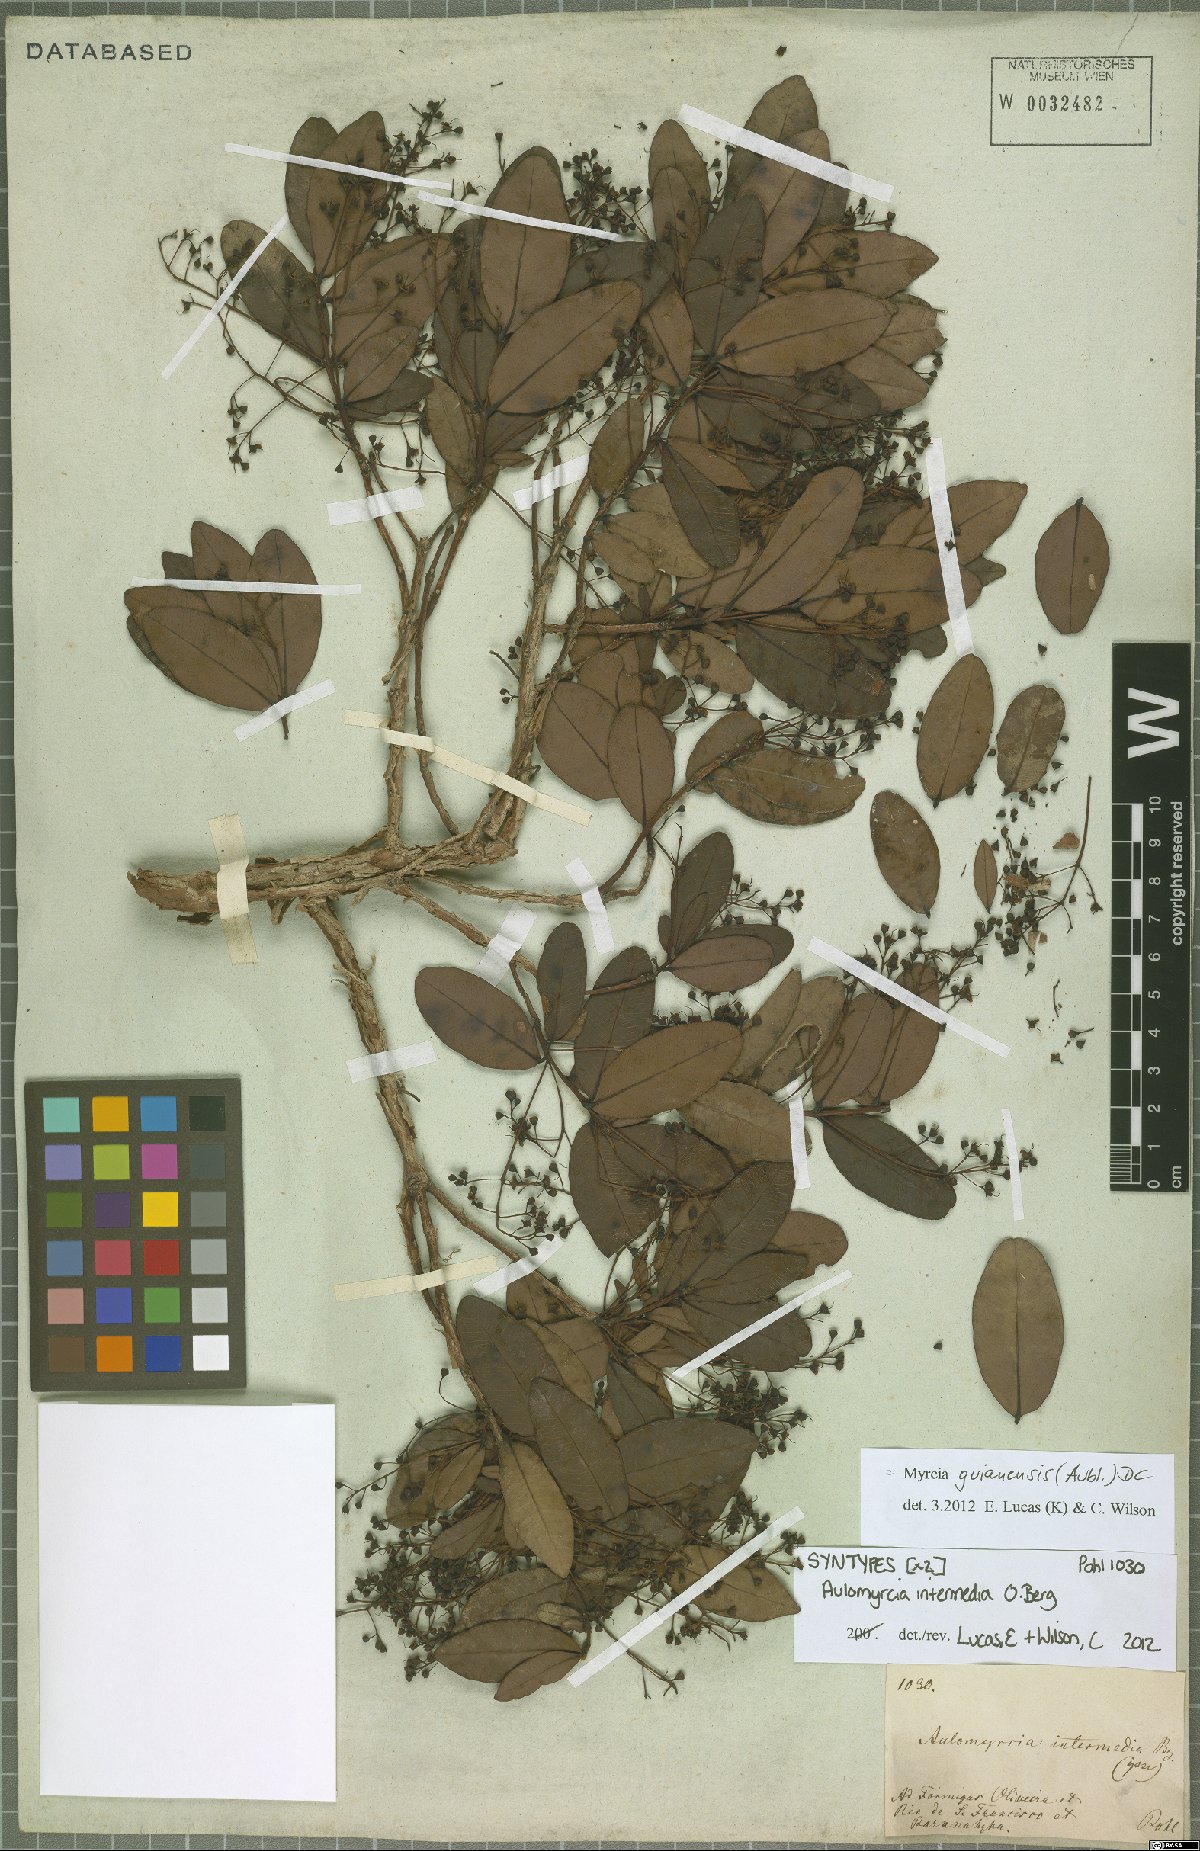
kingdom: Plantae
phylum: Tracheophyta
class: Magnoliopsida
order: Myrtales
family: Myrtaceae
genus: Myrcia
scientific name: Myrcia guianensis
